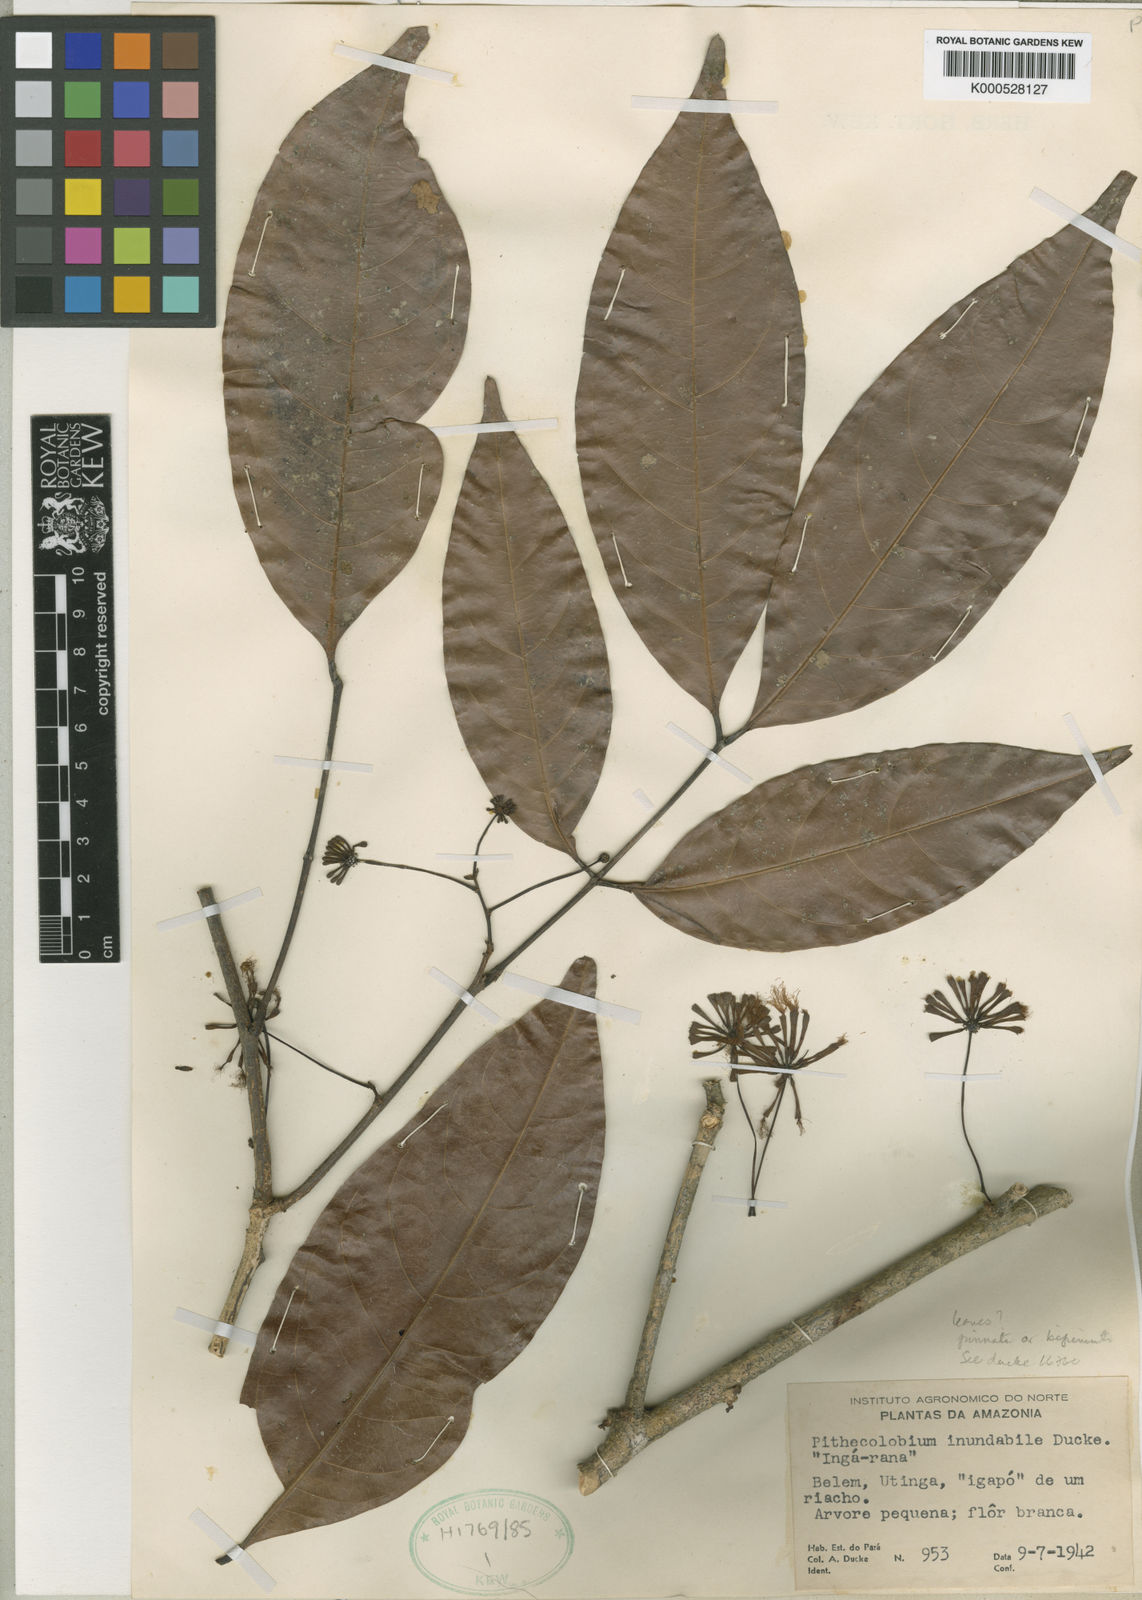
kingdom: Plantae
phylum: Tracheophyta
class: Magnoliopsida
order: Fabales
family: Fabaceae
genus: Inga
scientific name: Inga inundata
